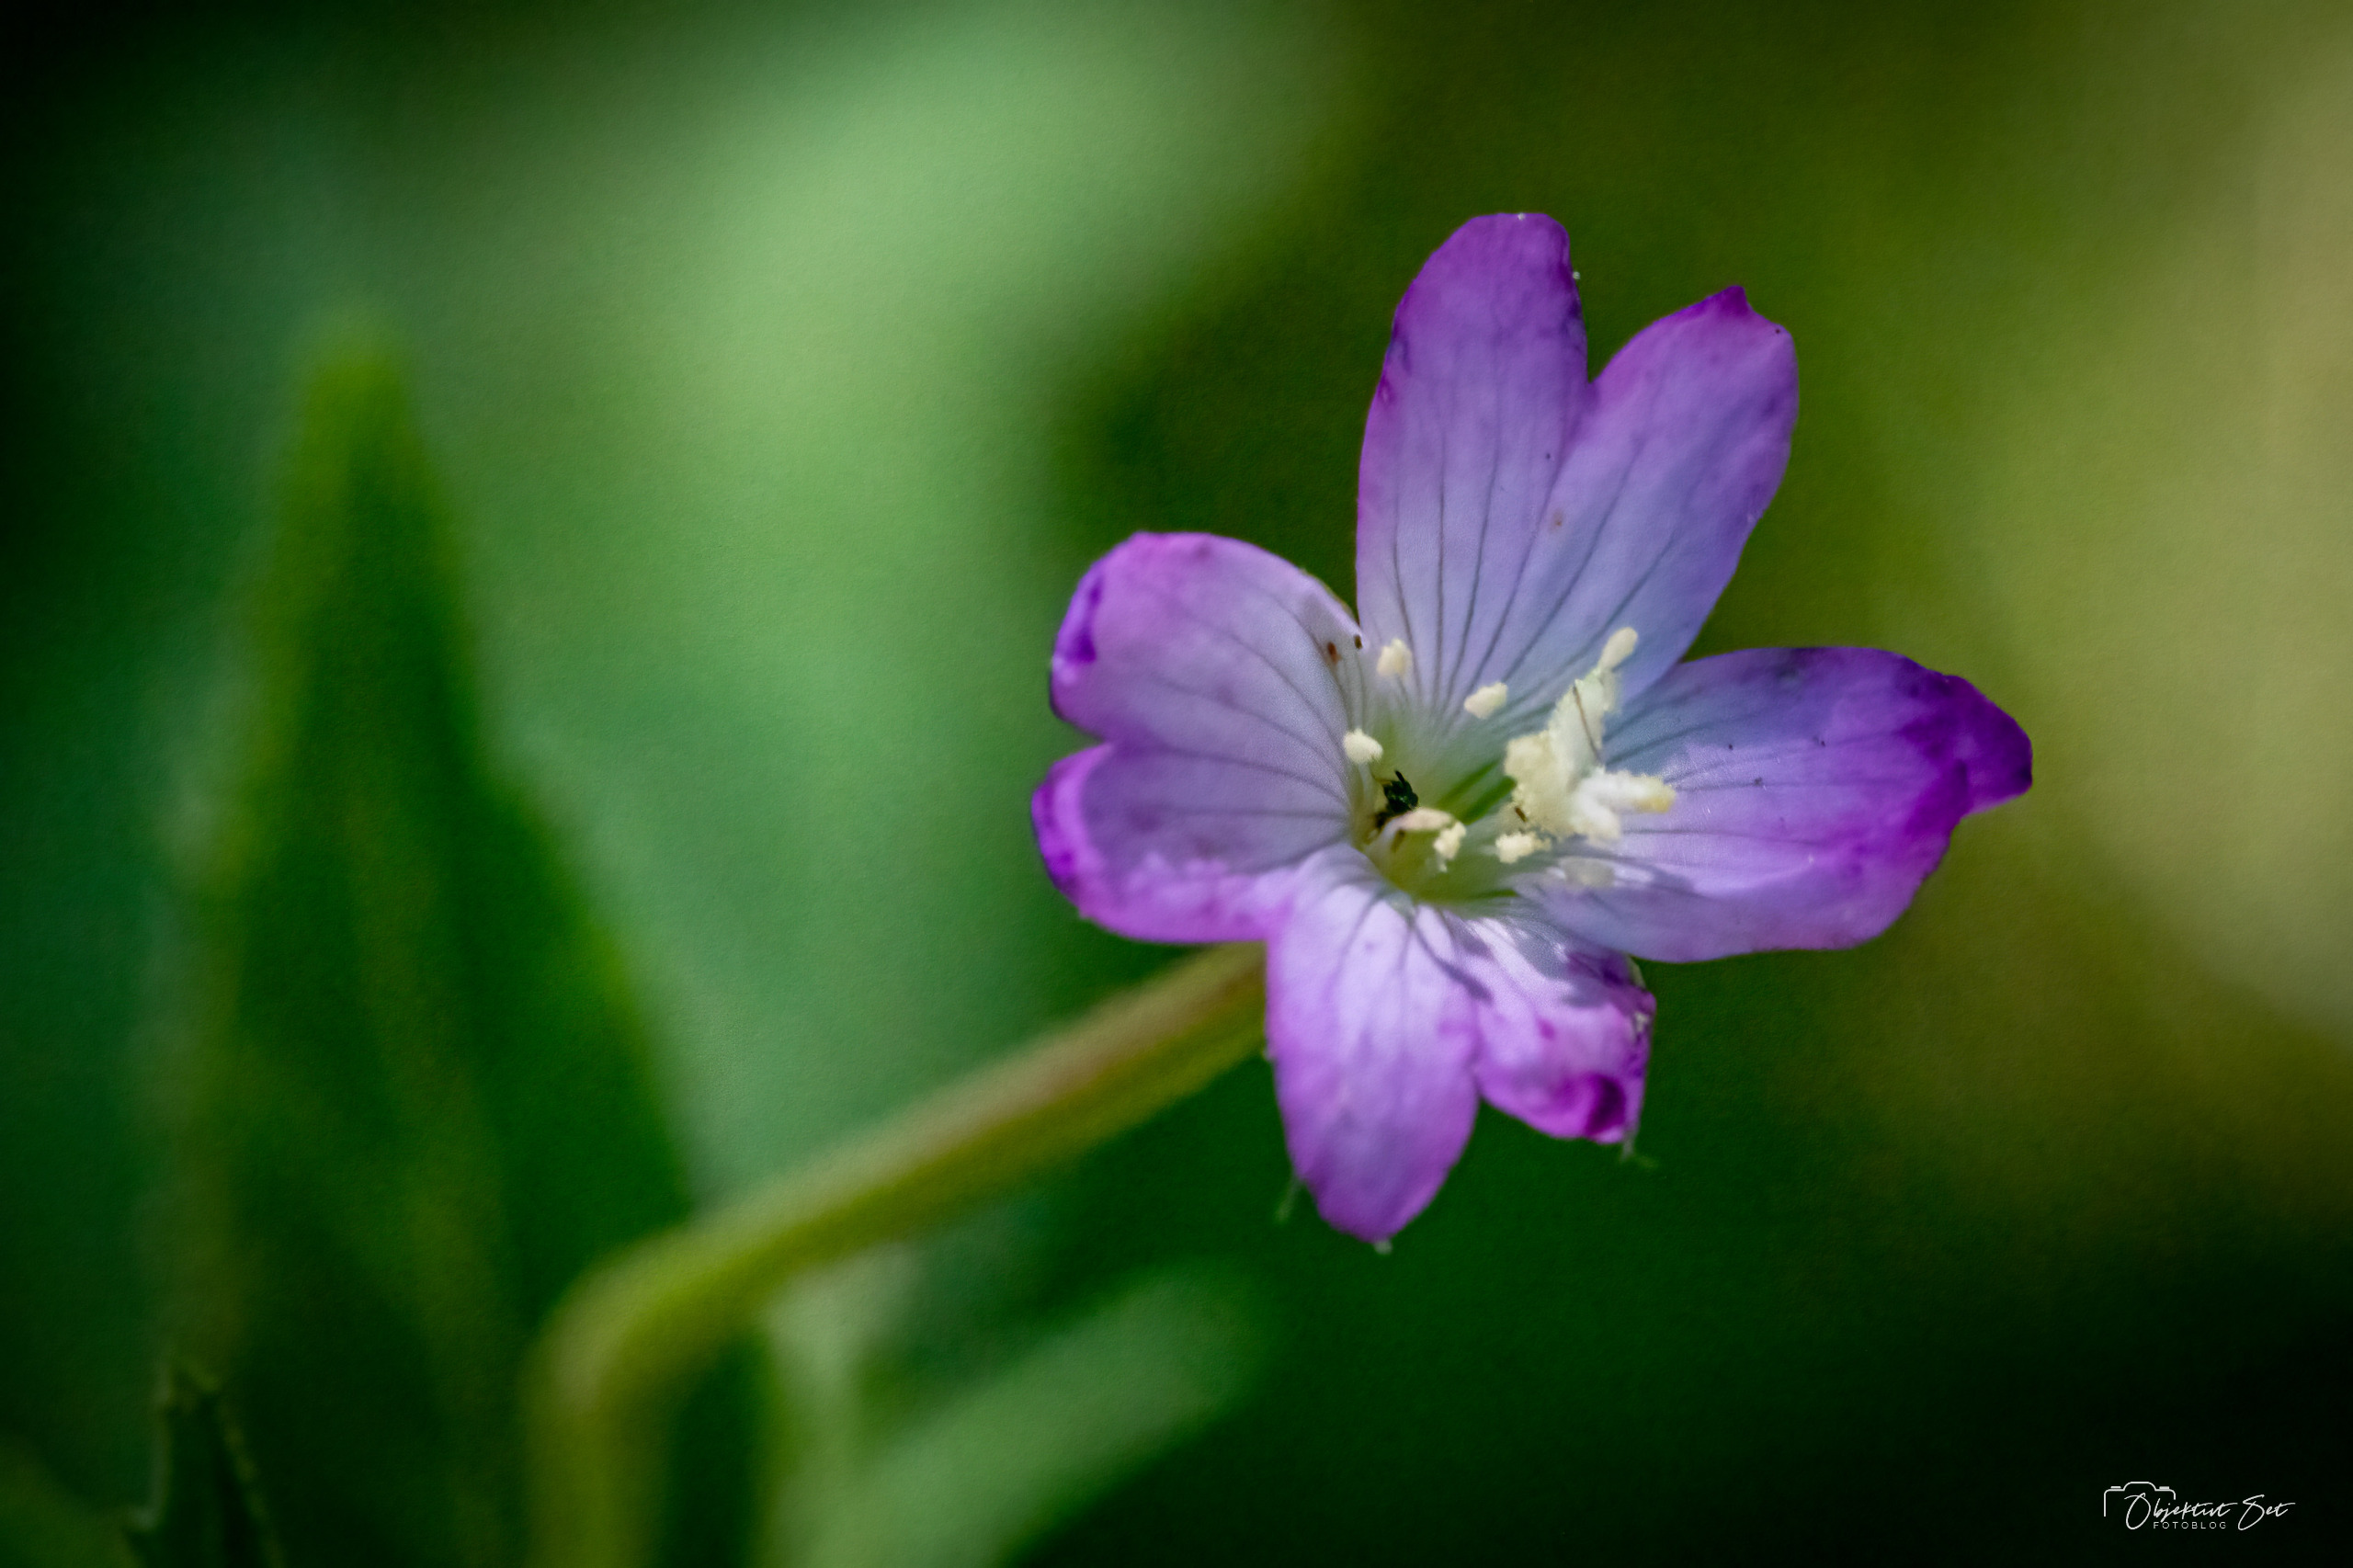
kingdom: Plantae
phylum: Tracheophyta
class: Magnoliopsida
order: Myrtales
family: Onagraceae
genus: Epilobium
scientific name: Epilobium montanum
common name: Glat dueurt
